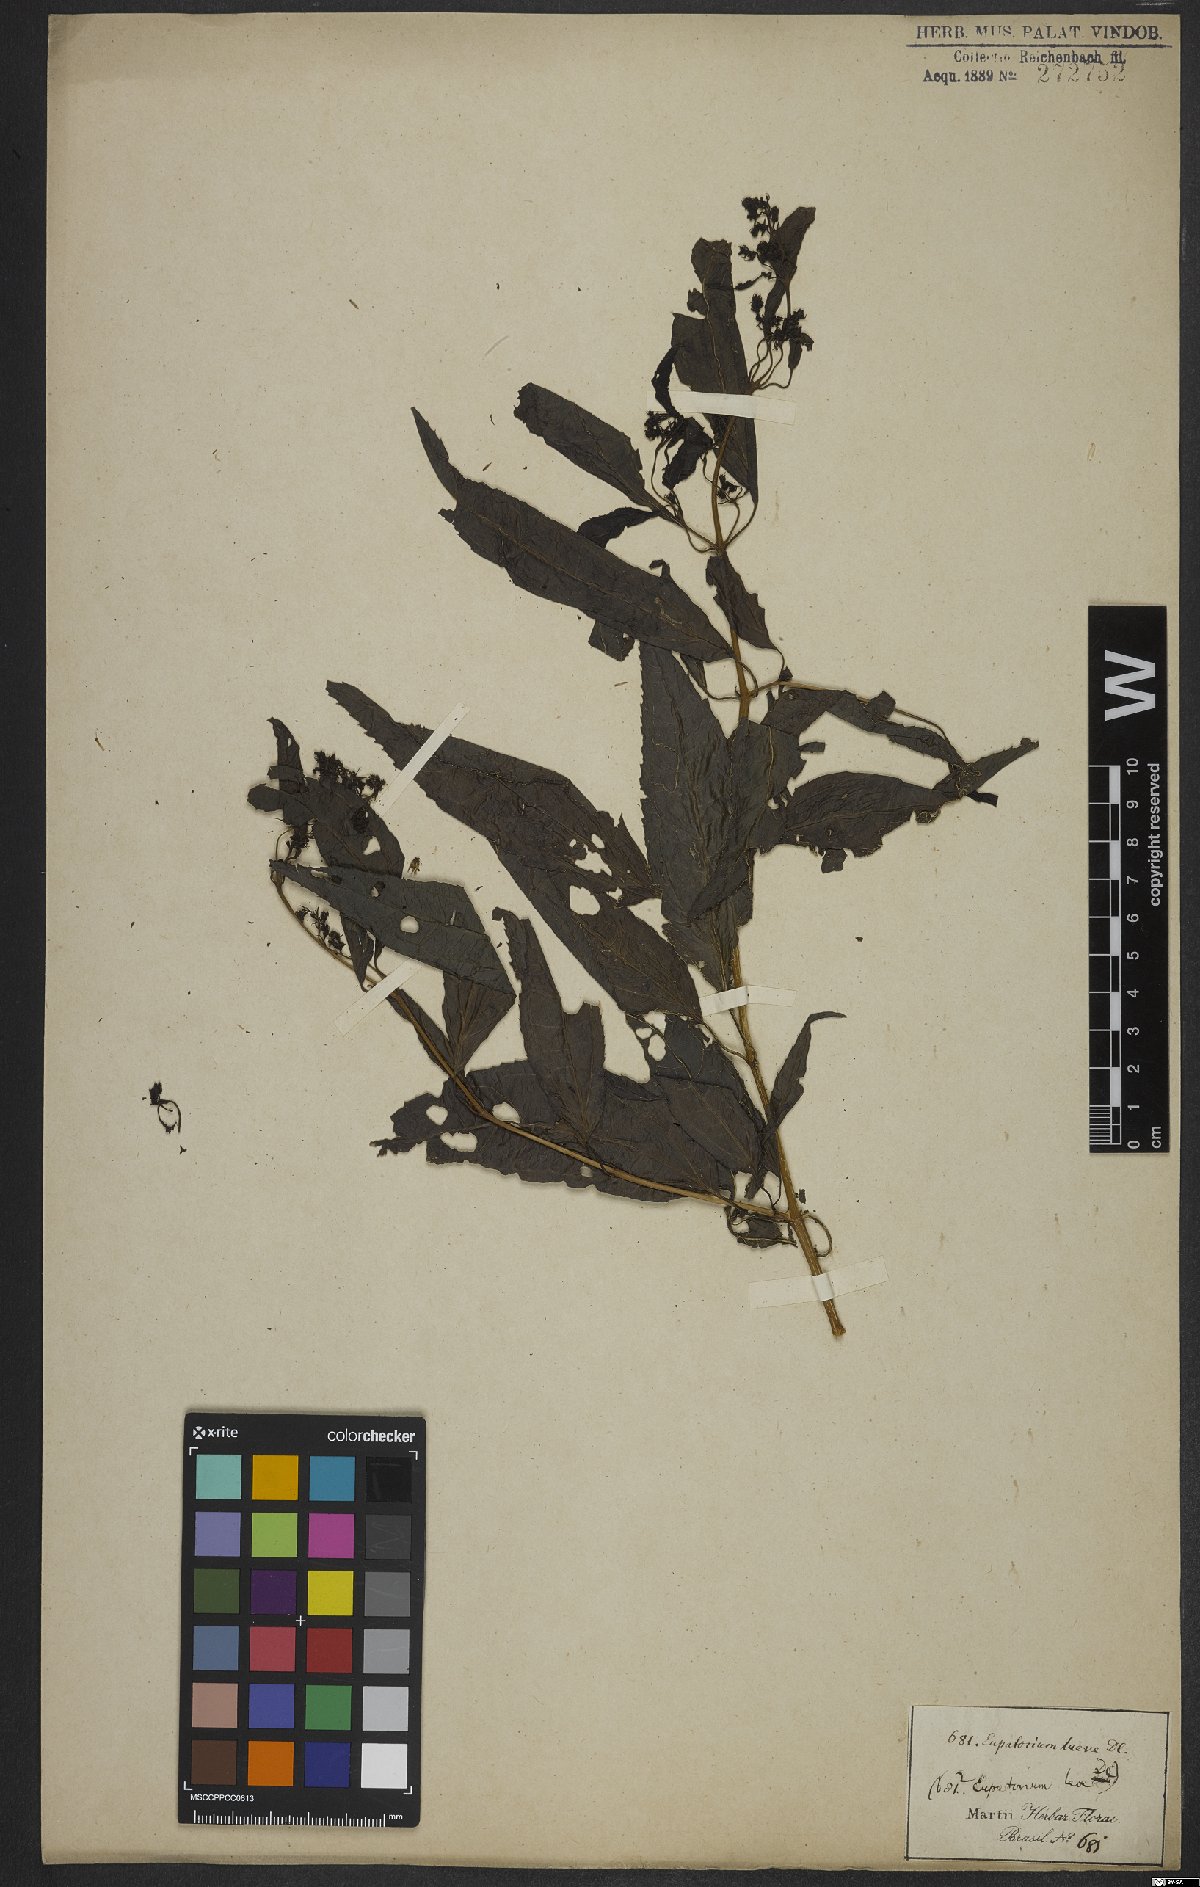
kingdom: Plantae
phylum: Tracheophyta
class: Magnoliopsida
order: Asterales
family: Asteraceae
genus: Koanophyllon
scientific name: Koanophyllon simillimum
